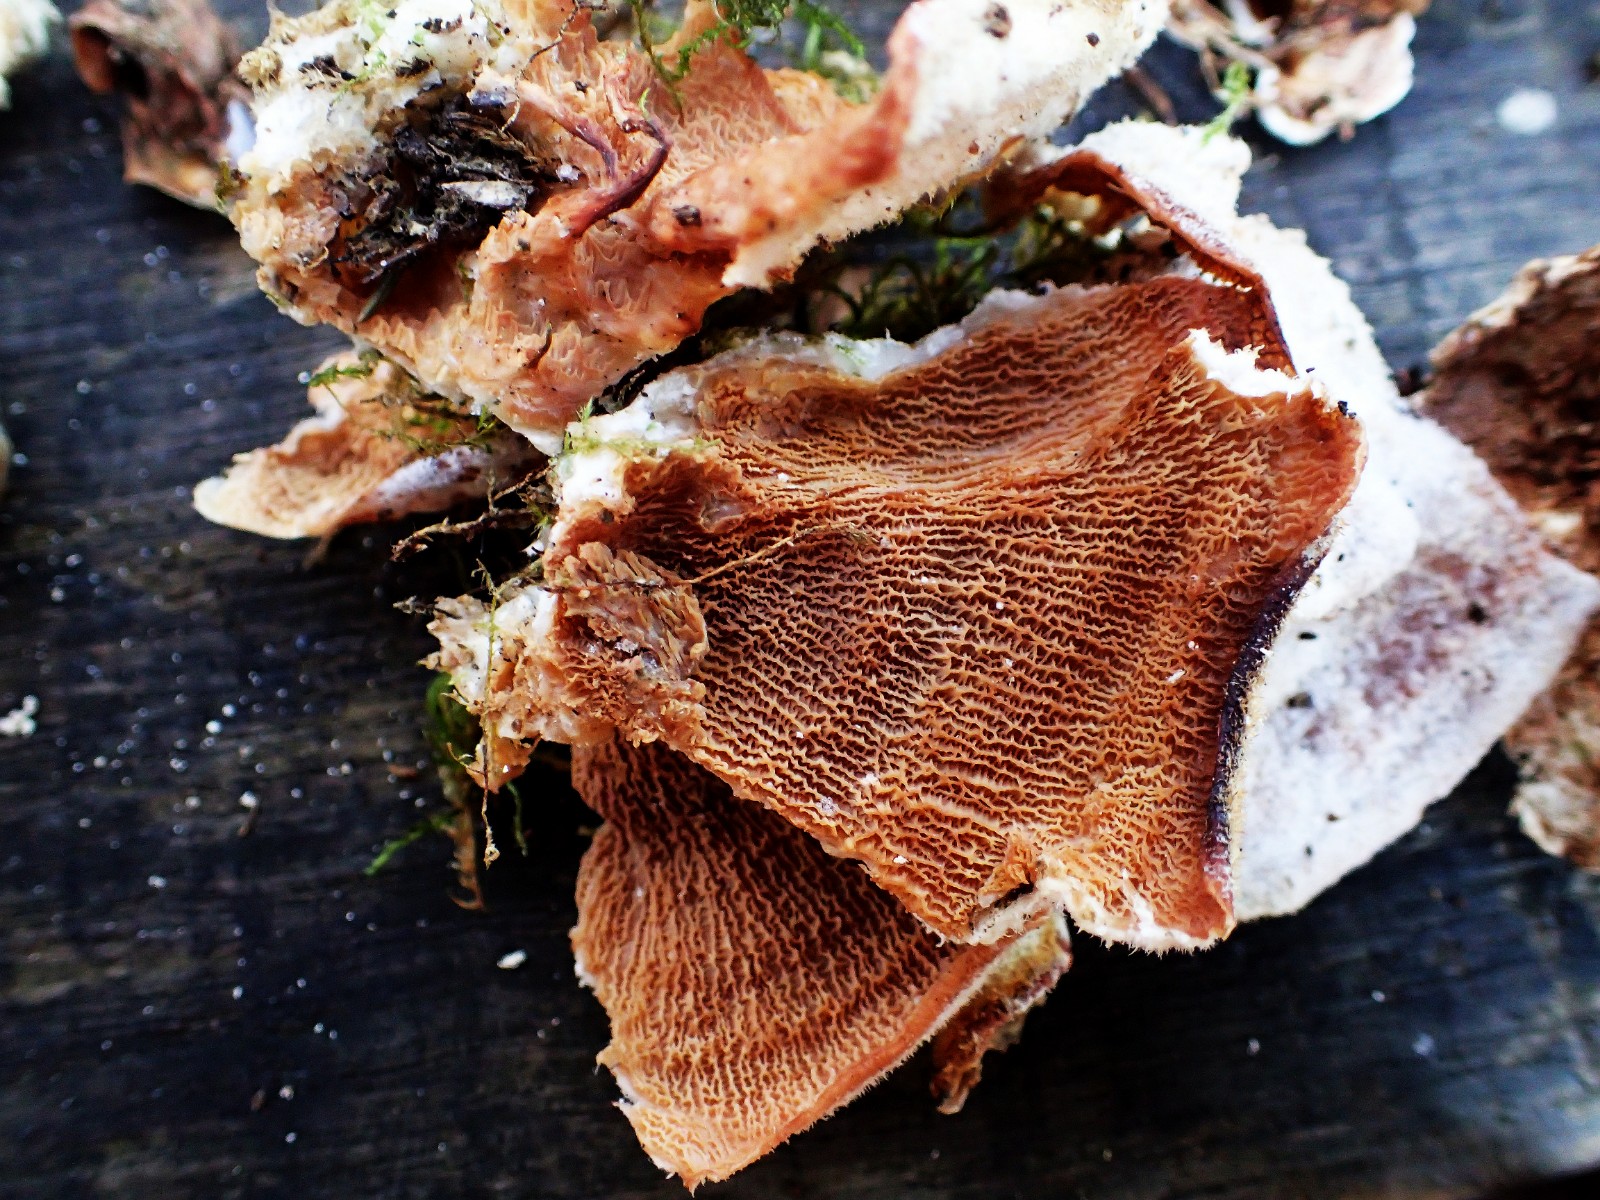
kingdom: Fungi
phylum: Basidiomycota
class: Agaricomycetes
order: Polyporales
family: Meruliaceae
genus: Phlebia
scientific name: Phlebia tremellosa
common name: bævrende åresvamp
